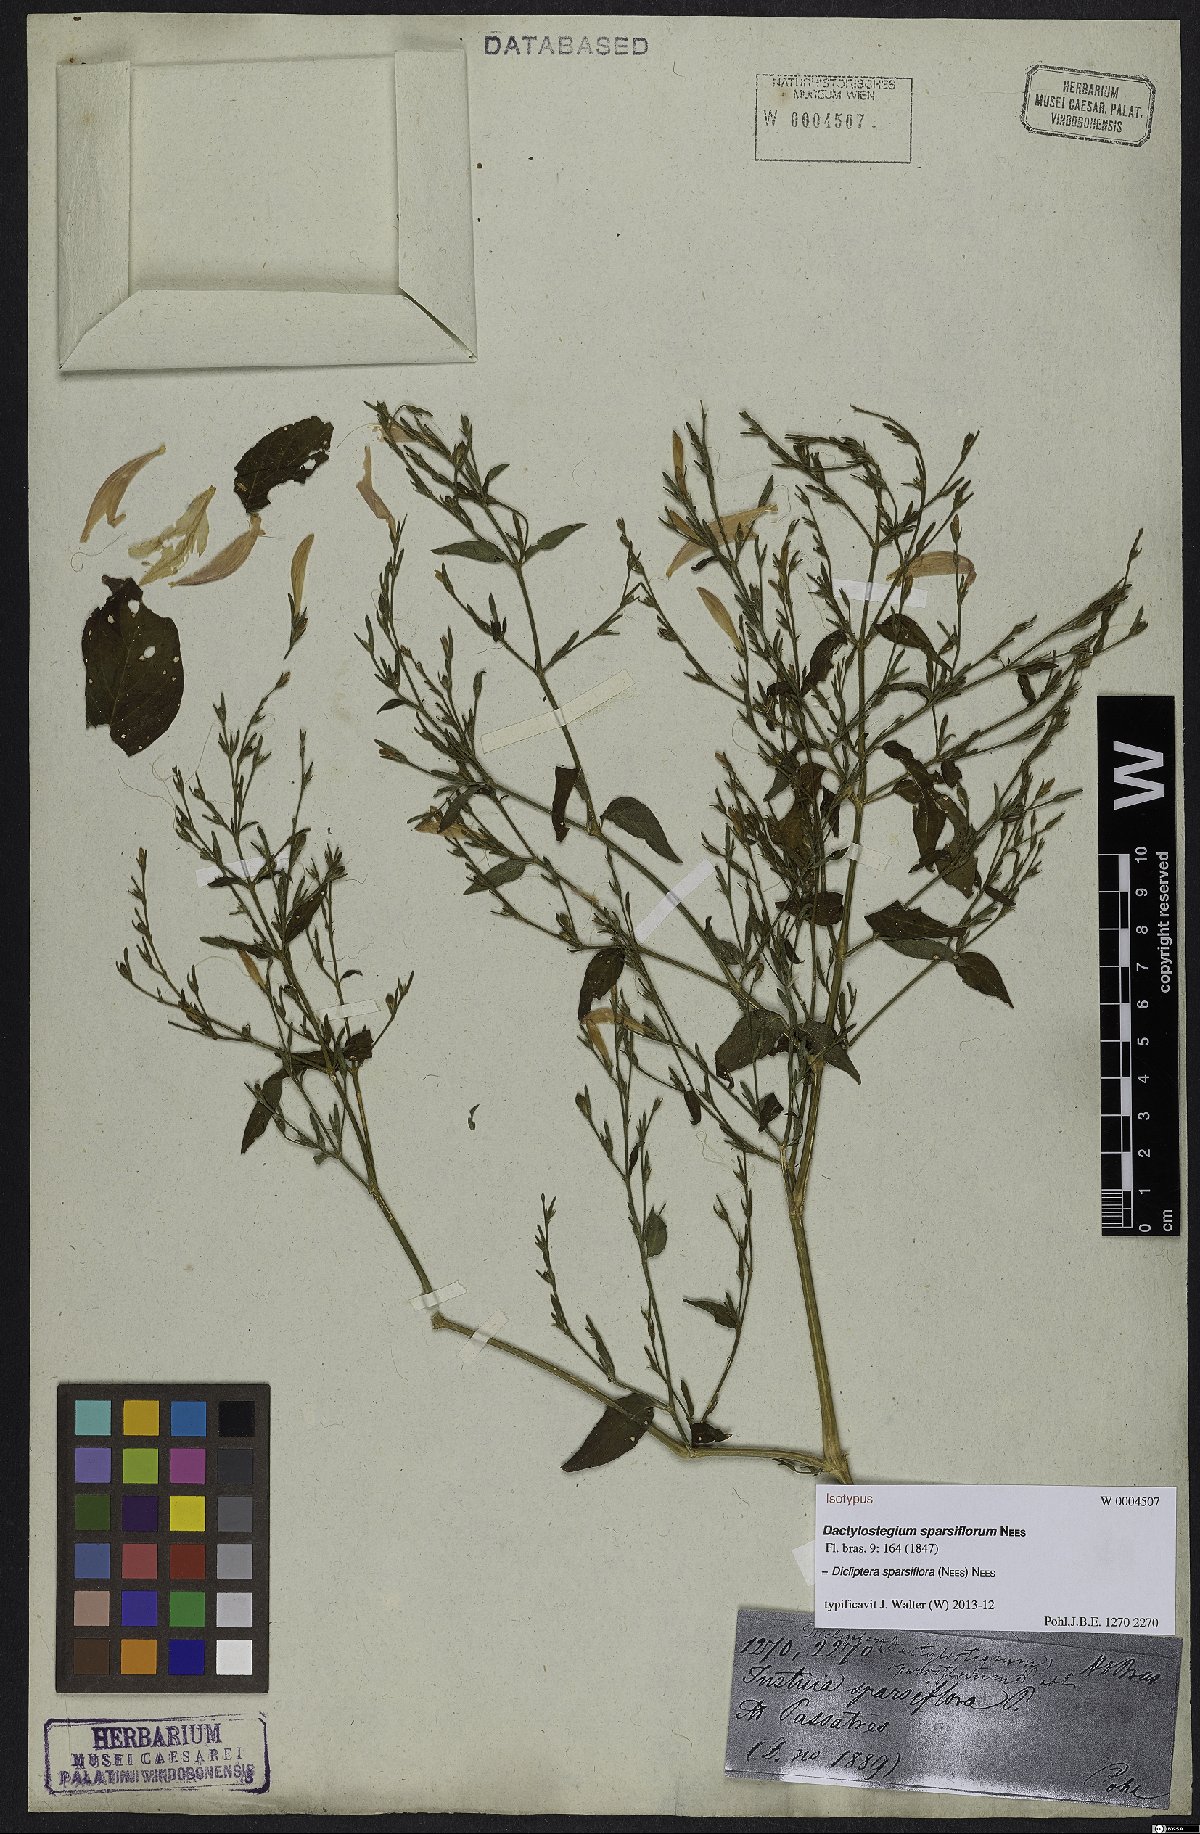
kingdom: Plantae
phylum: Tracheophyta
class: Magnoliopsida
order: Lamiales
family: Acanthaceae
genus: Dicliptera
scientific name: Dicliptera sparsiflora
